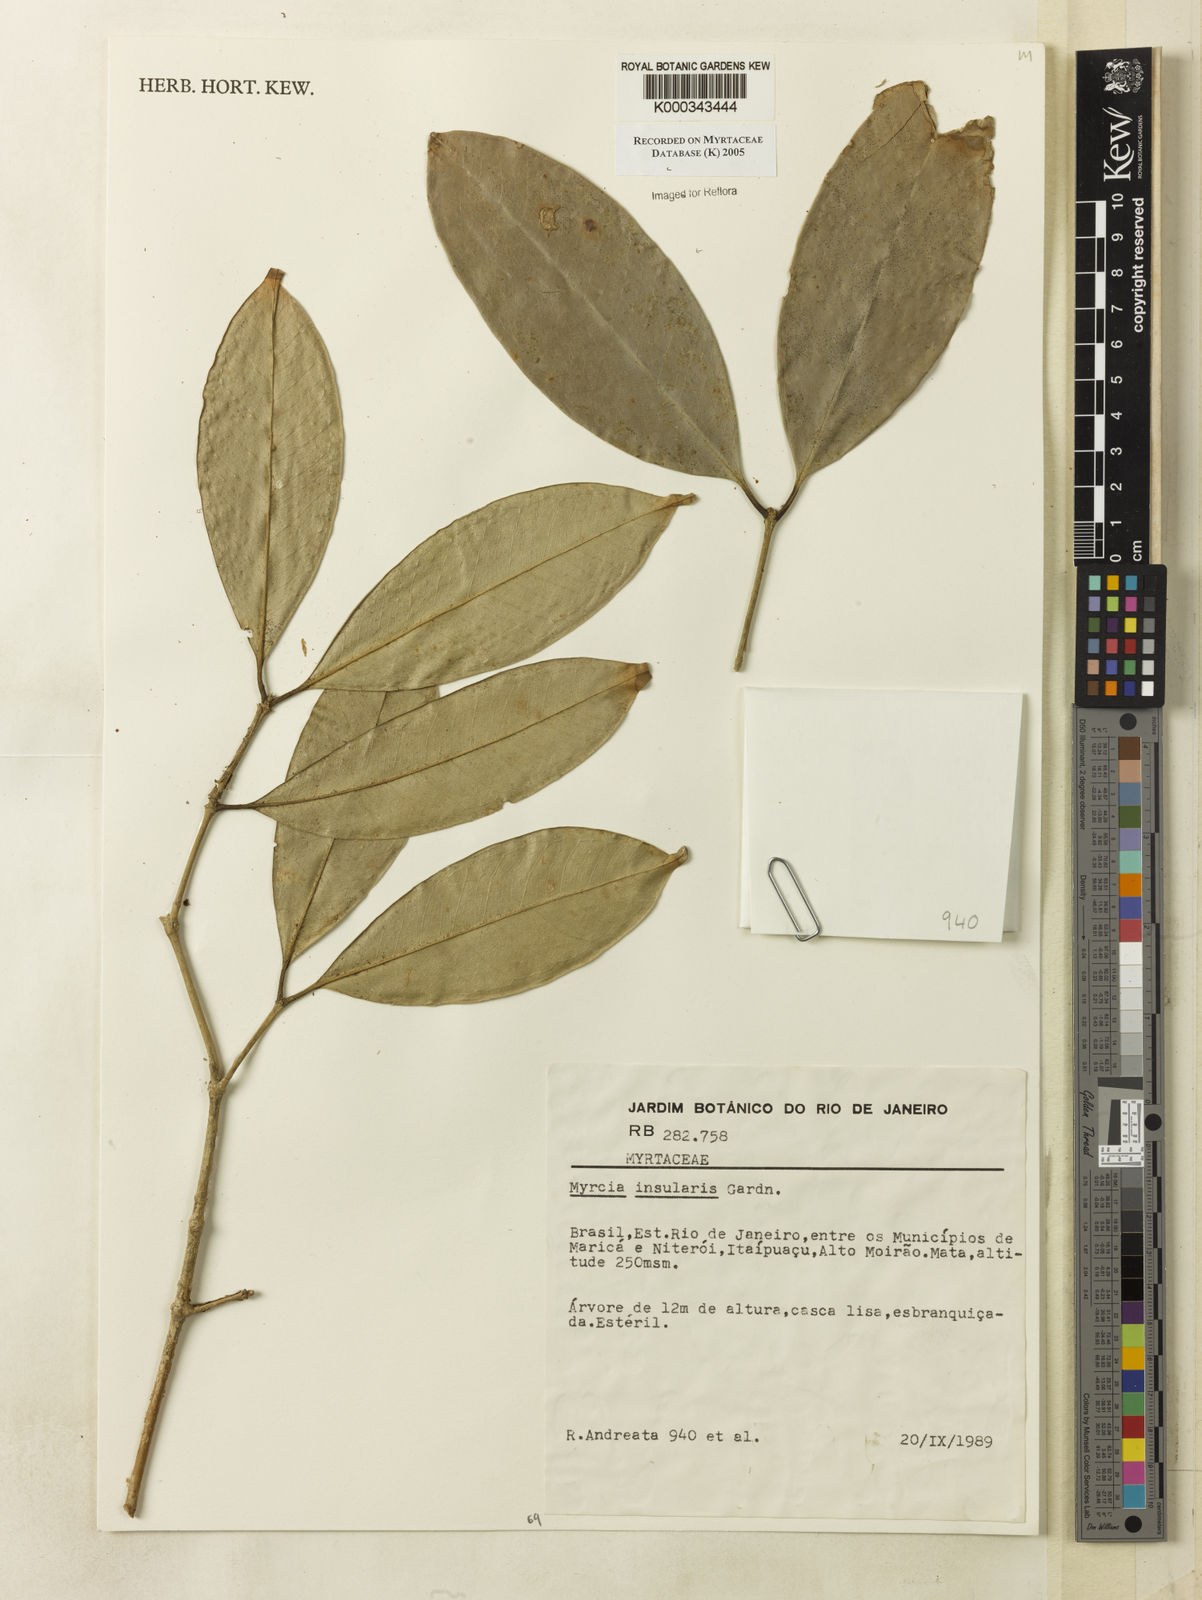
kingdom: Plantae
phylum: Tracheophyta
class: Magnoliopsida
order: Myrtales
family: Myrtaceae
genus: Myrcia
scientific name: Myrcia insularis
